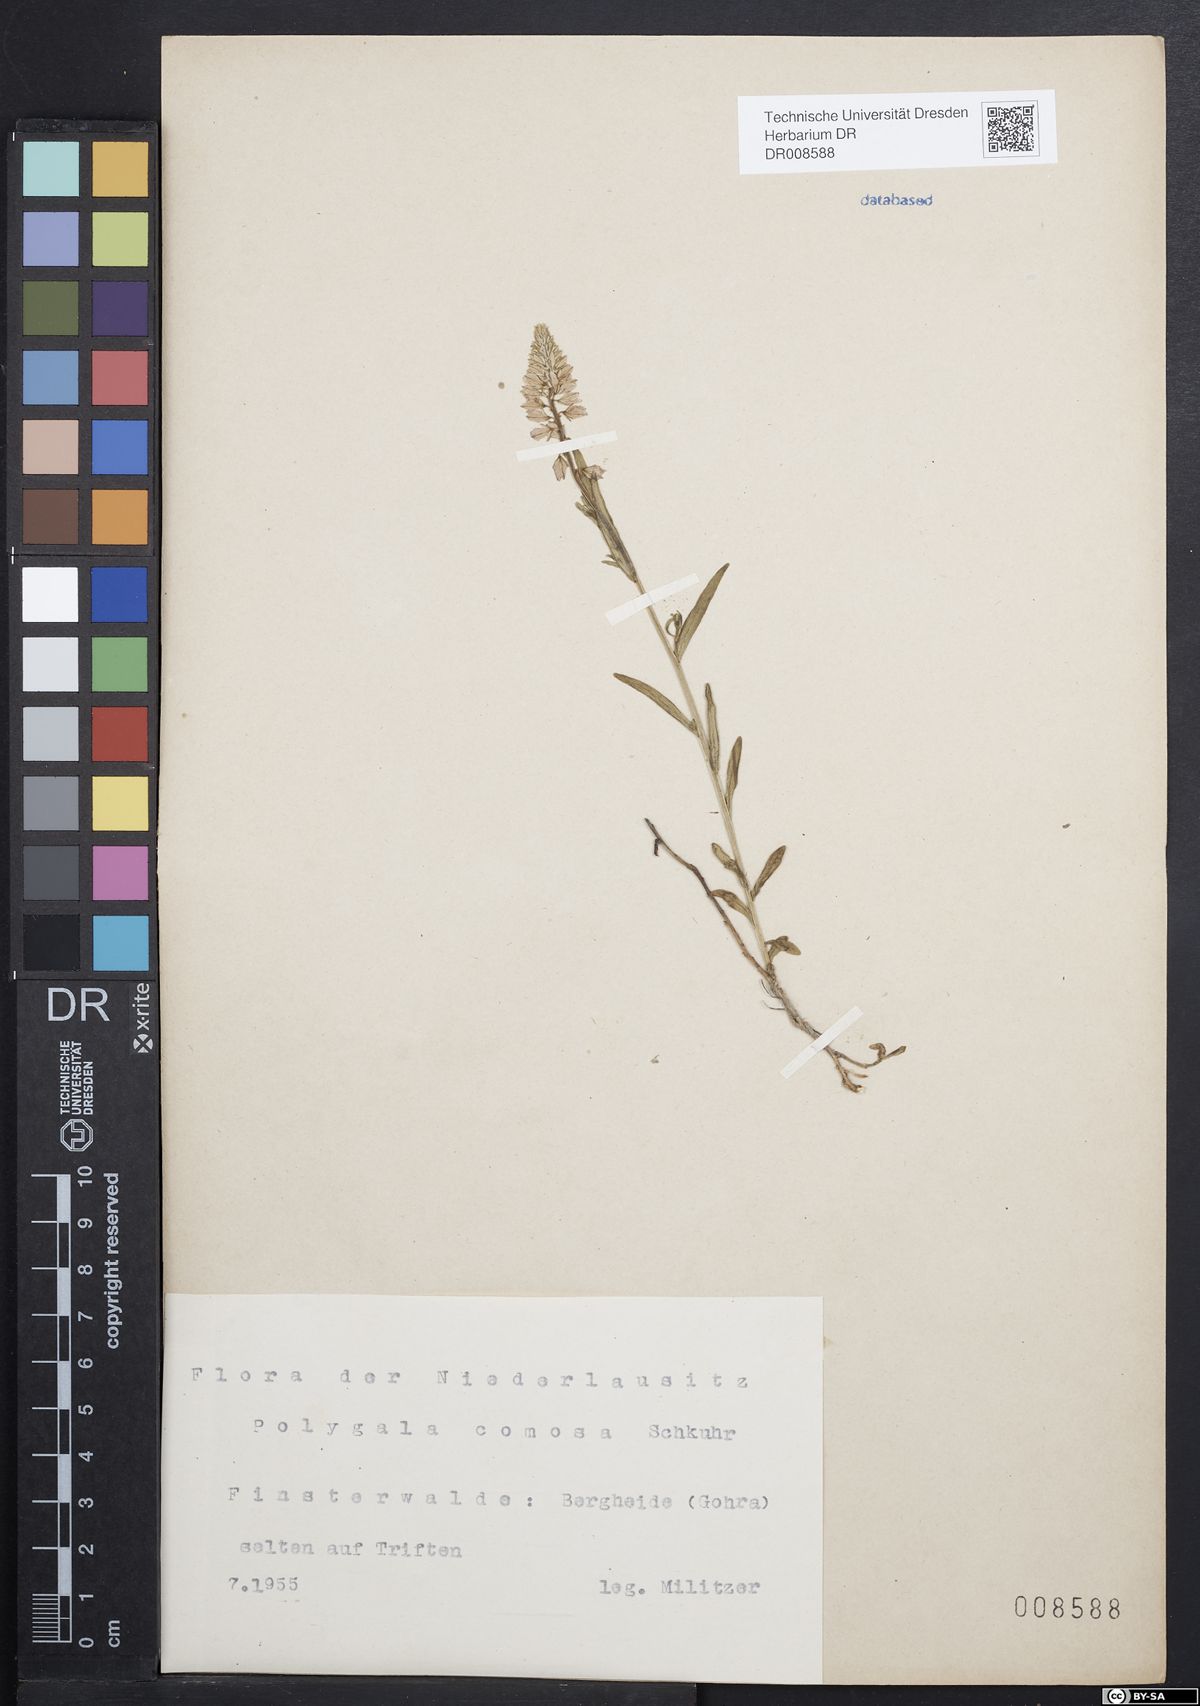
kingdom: Plantae
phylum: Tracheophyta
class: Magnoliopsida
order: Fabales
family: Polygalaceae
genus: Polygala
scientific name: Polygala comosa
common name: Tufted milkwort
